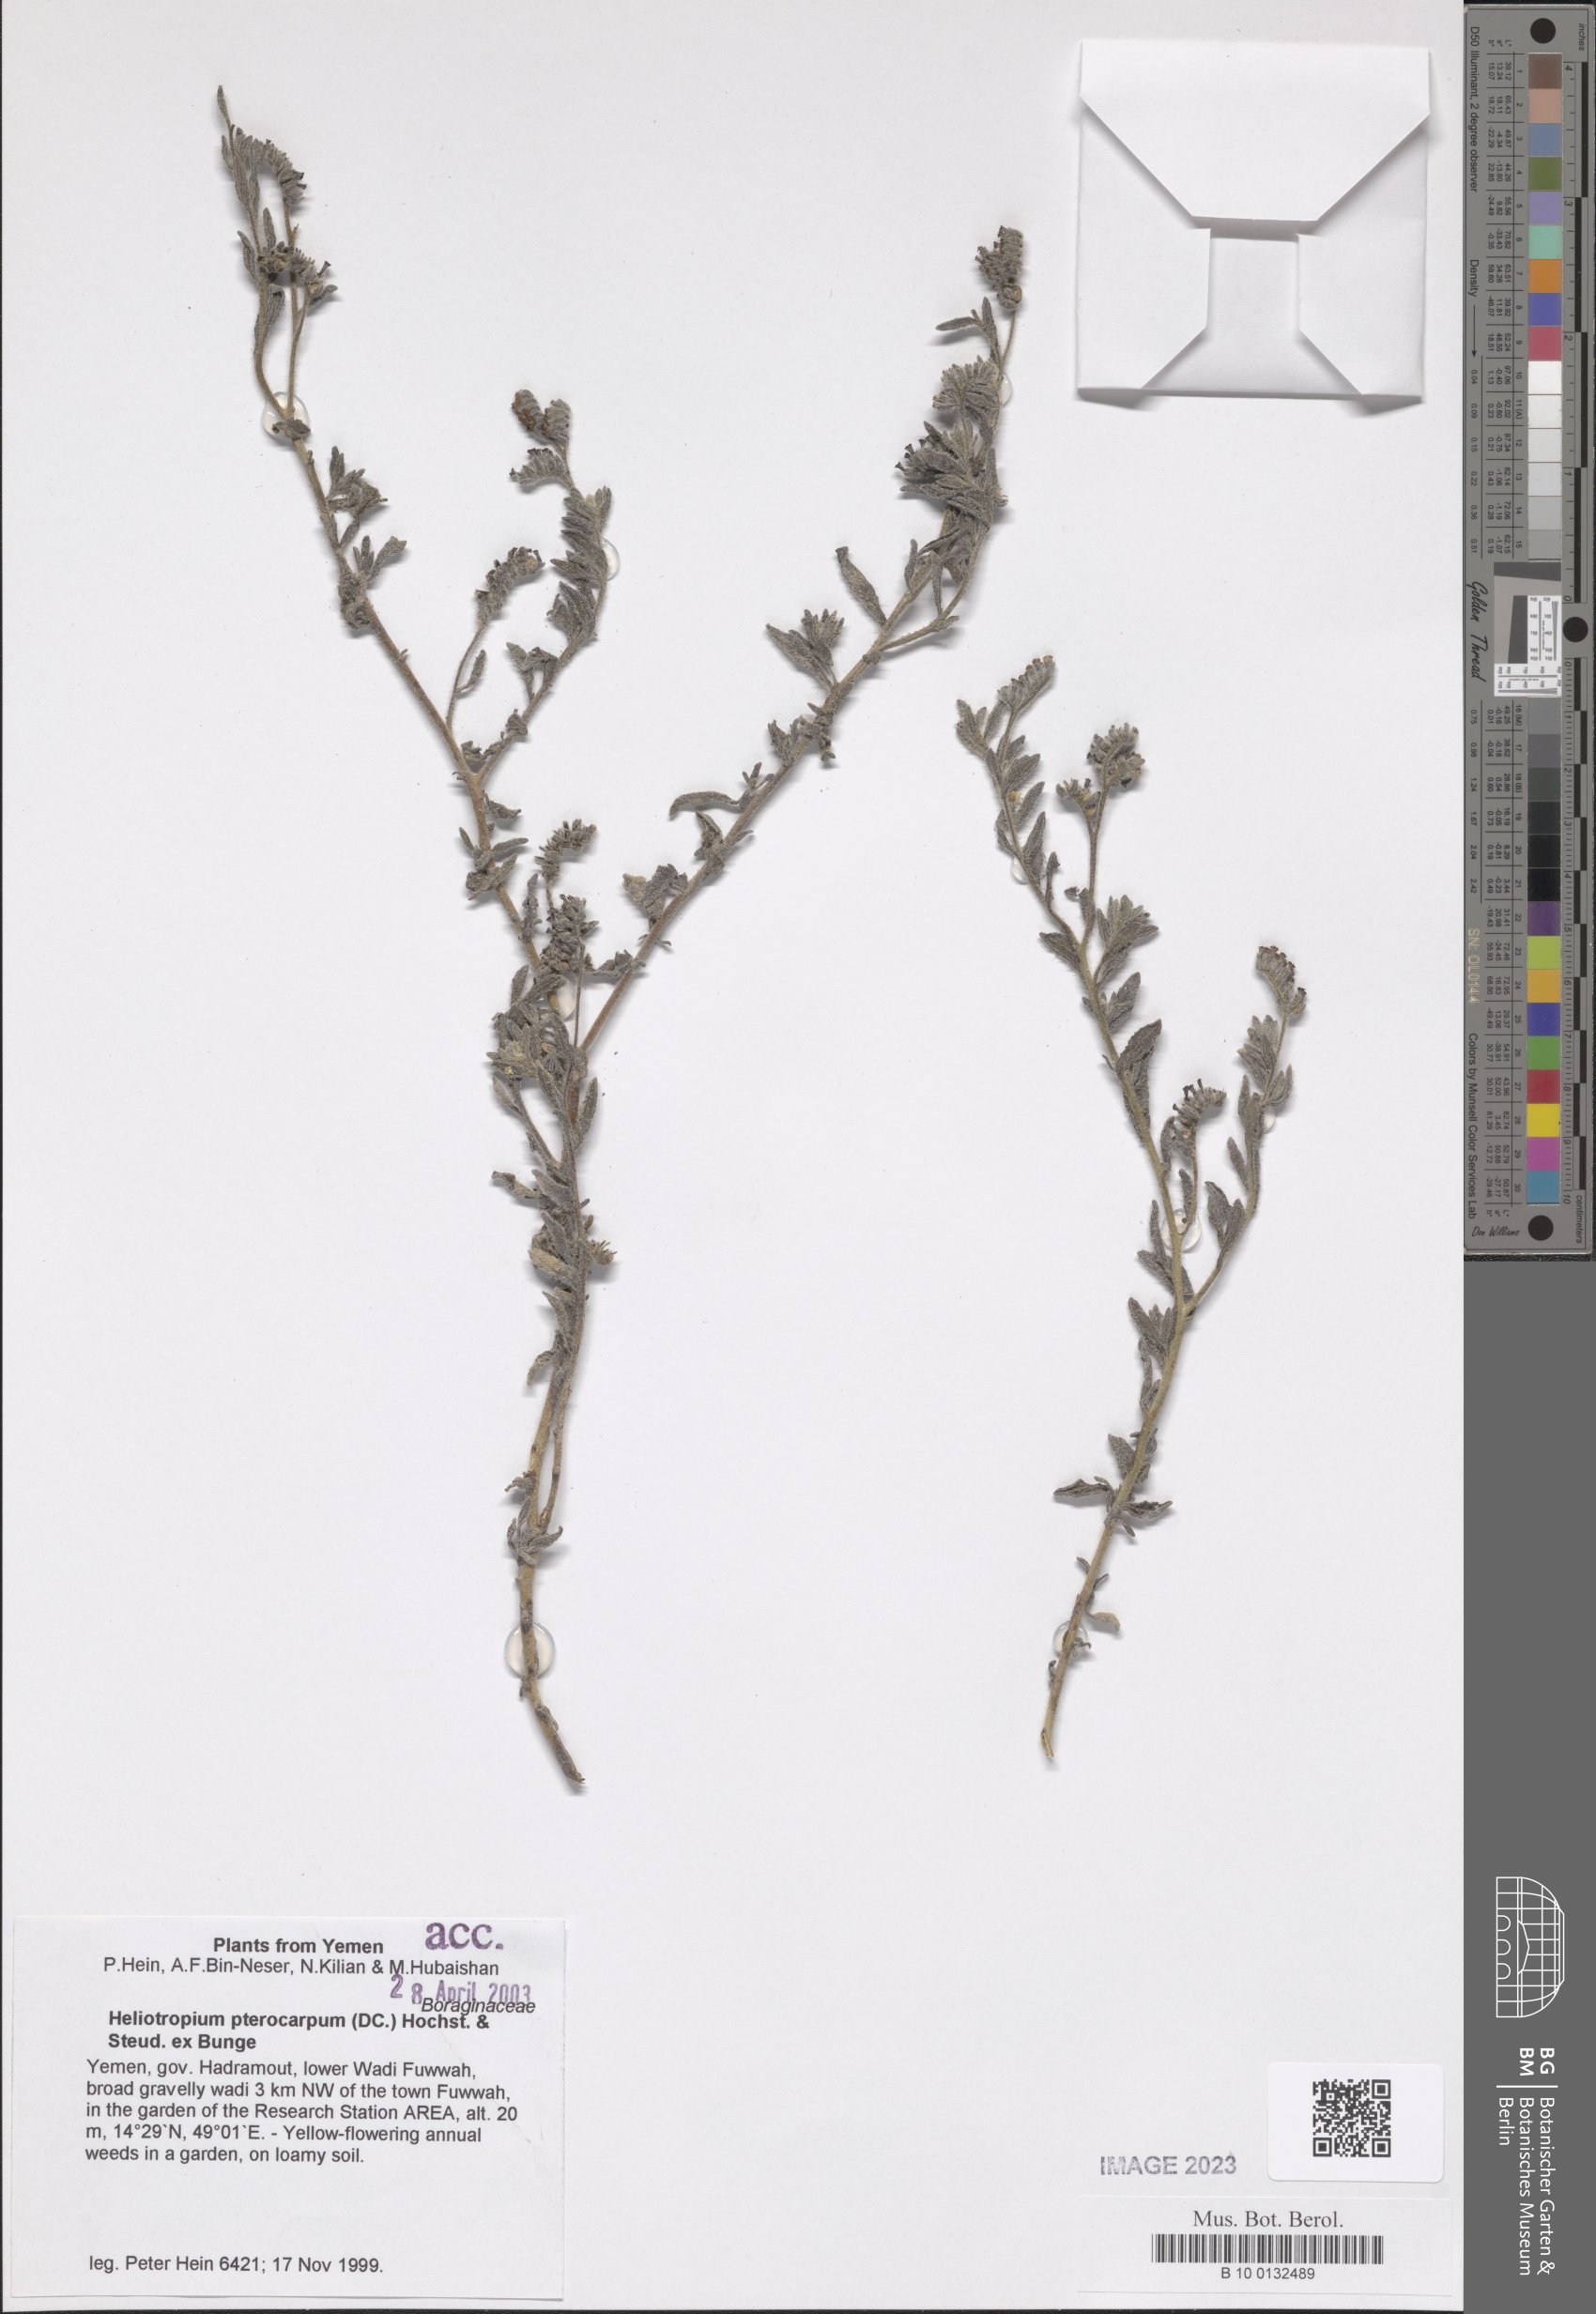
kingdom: Plantae
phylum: Tracheophyta
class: Magnoliopsida
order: Boraginales
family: Heliotropiaceae
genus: Heliotropium
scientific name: Heliotropium pterocarpum
